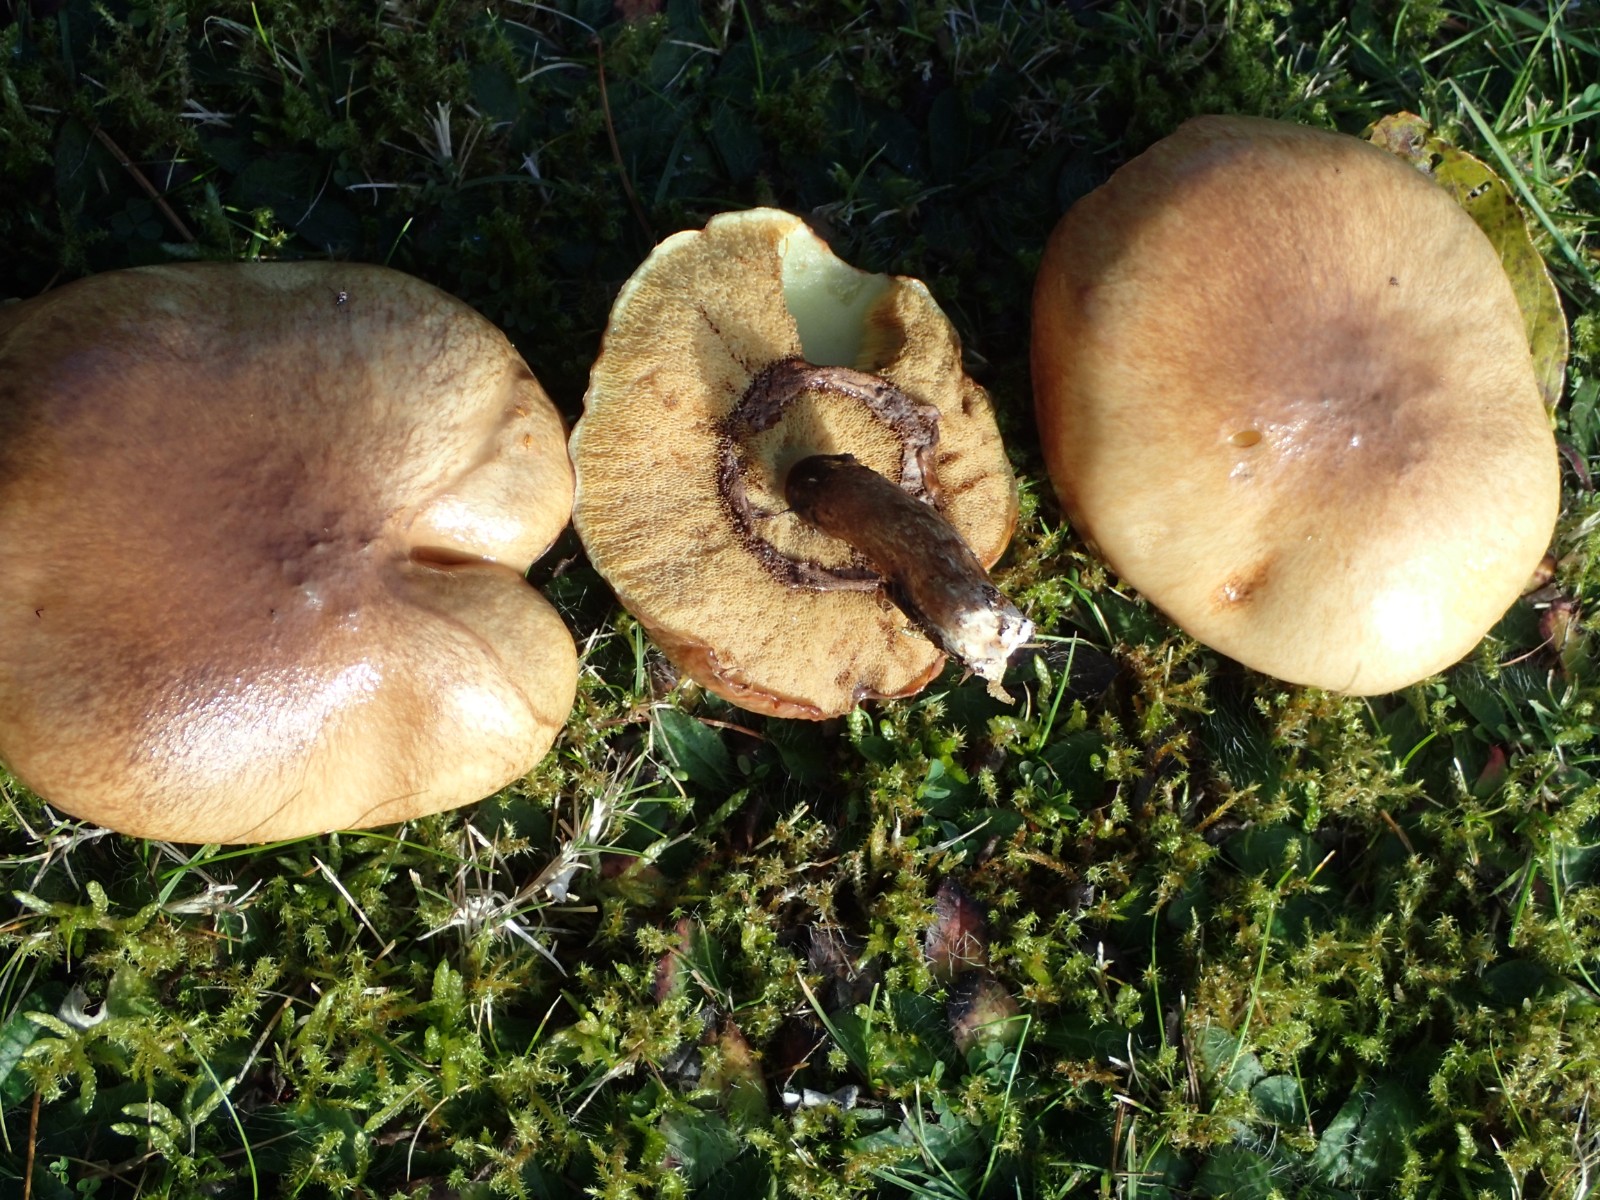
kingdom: Fungi
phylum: Basidiomycota
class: Agaricomycetes
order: Boletales
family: Suillaceae
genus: Suillus
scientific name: Suillus luteus
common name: brungul slimrørhat
